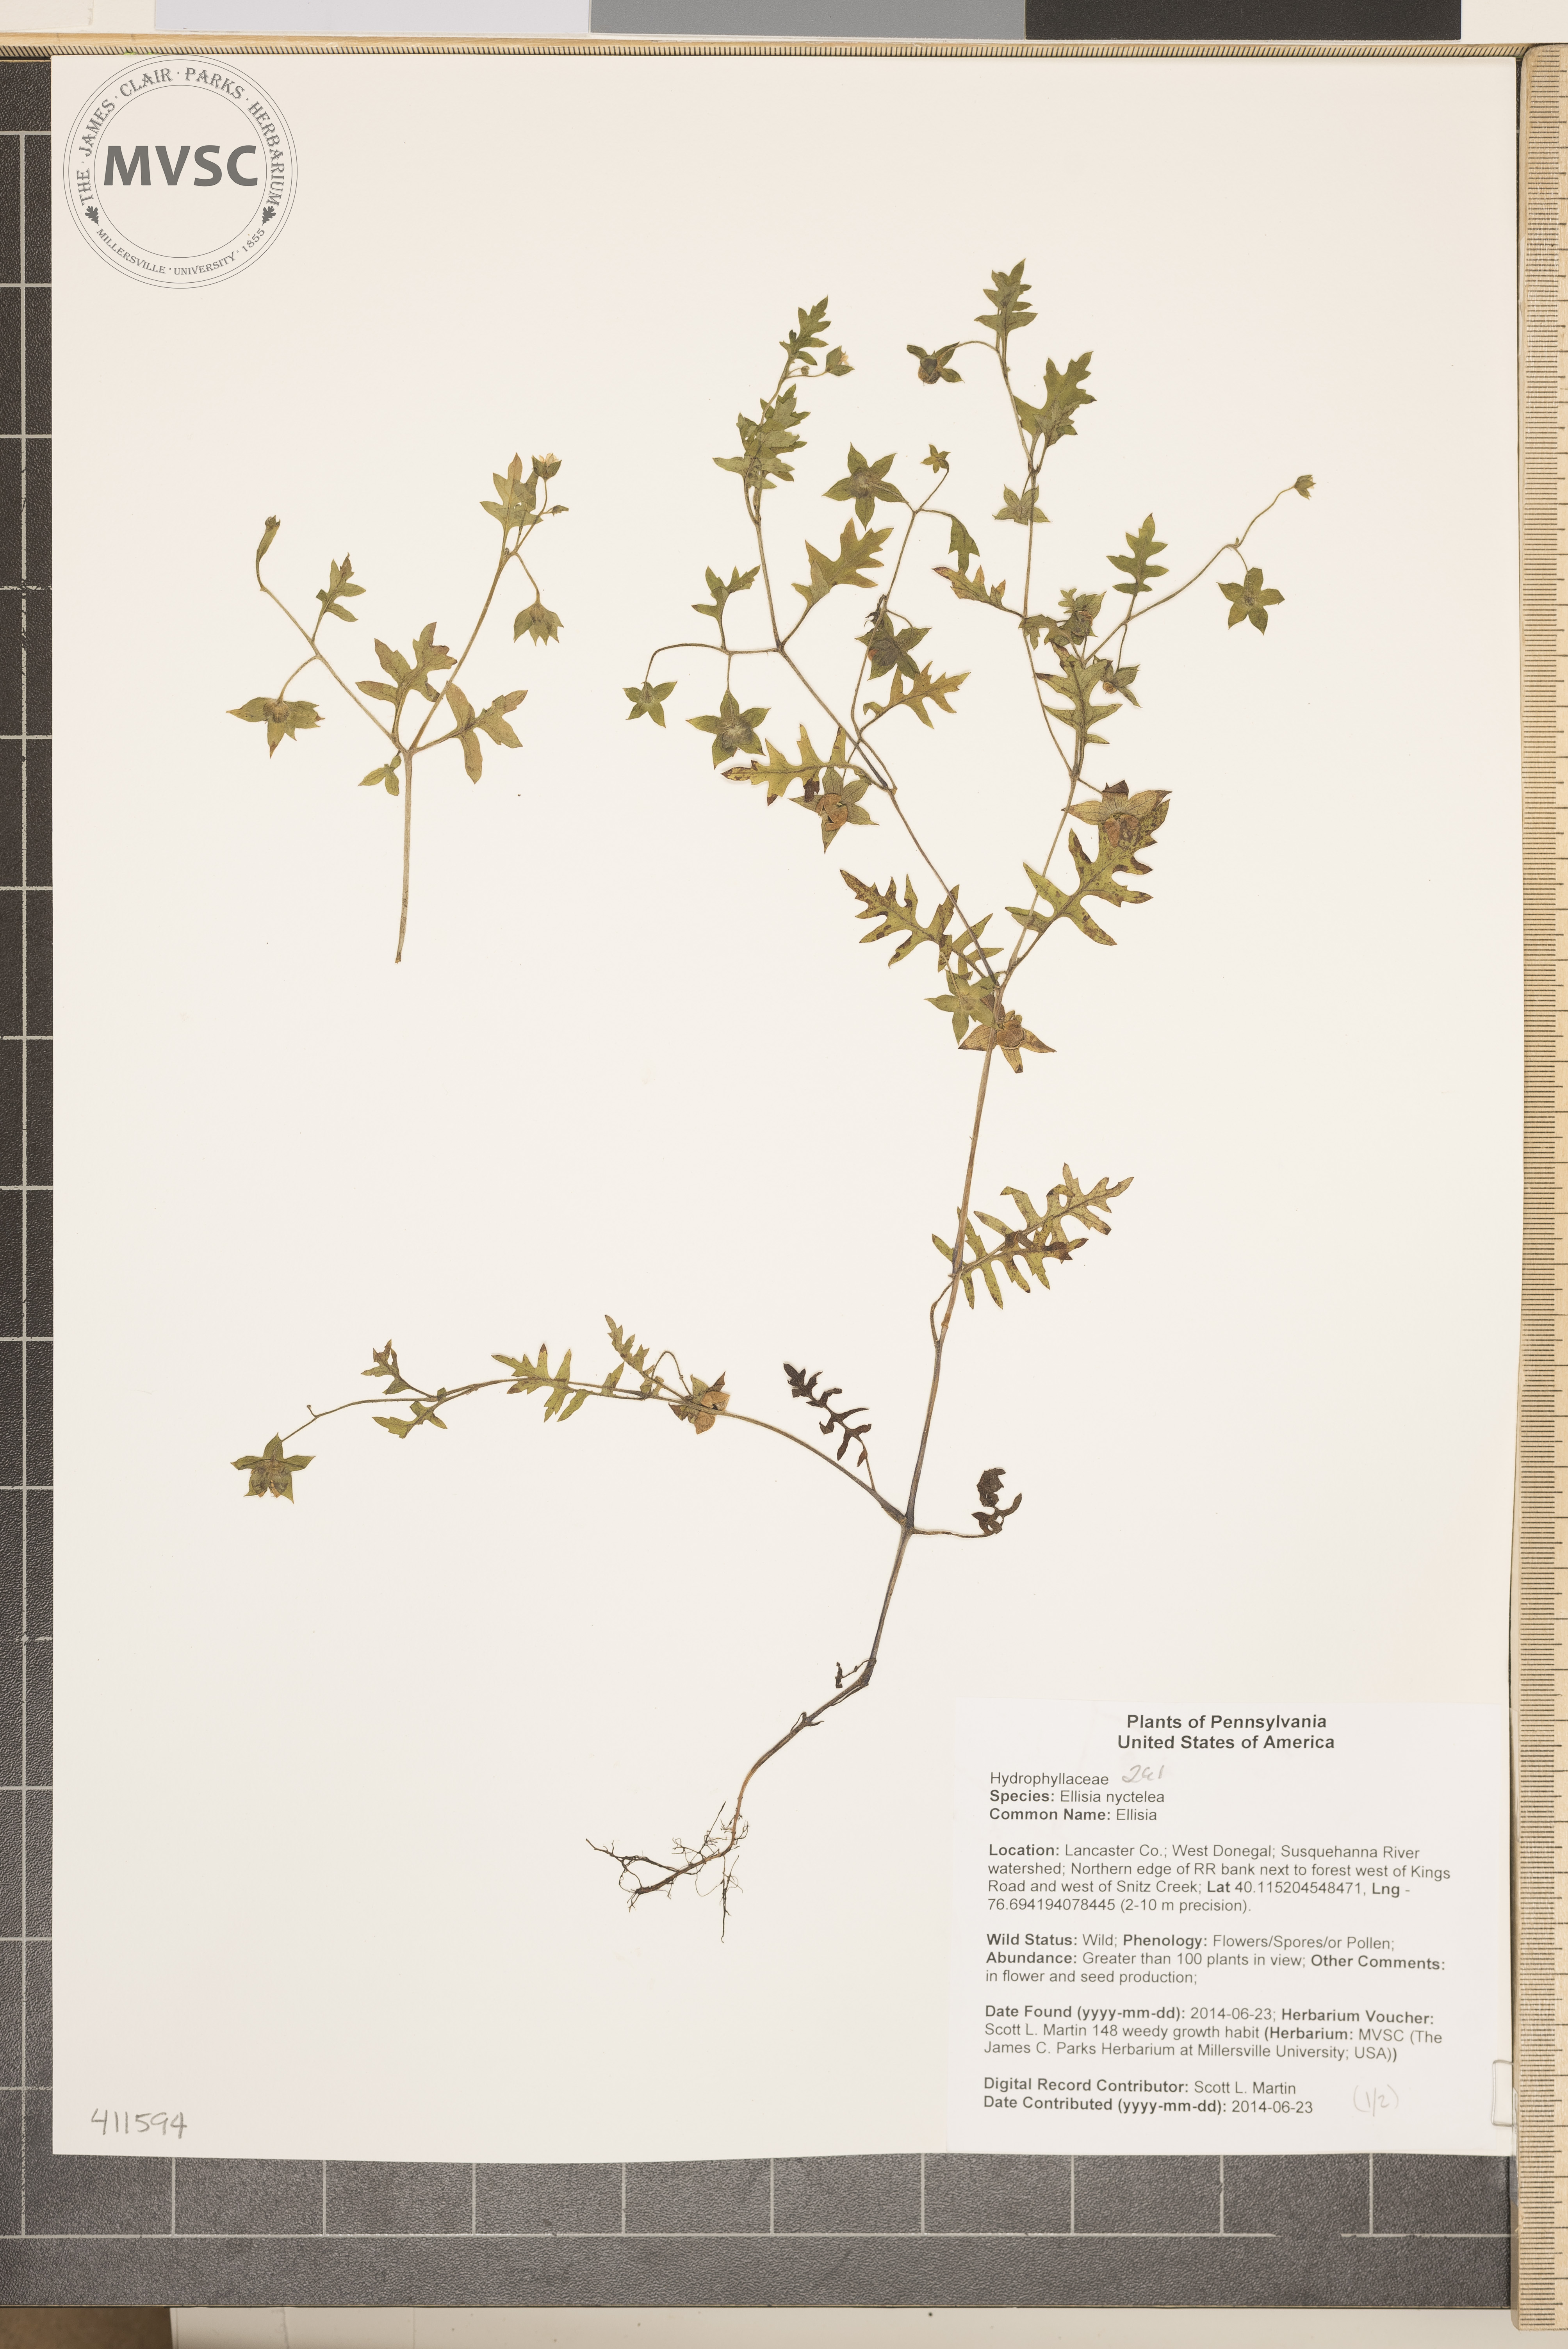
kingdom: Plantae
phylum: Tracheophyta
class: Magnoliopsida
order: Boraginales
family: Hydrophyllaceae
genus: Ellisia
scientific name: Ellisia nyctelea
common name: Ellisia
